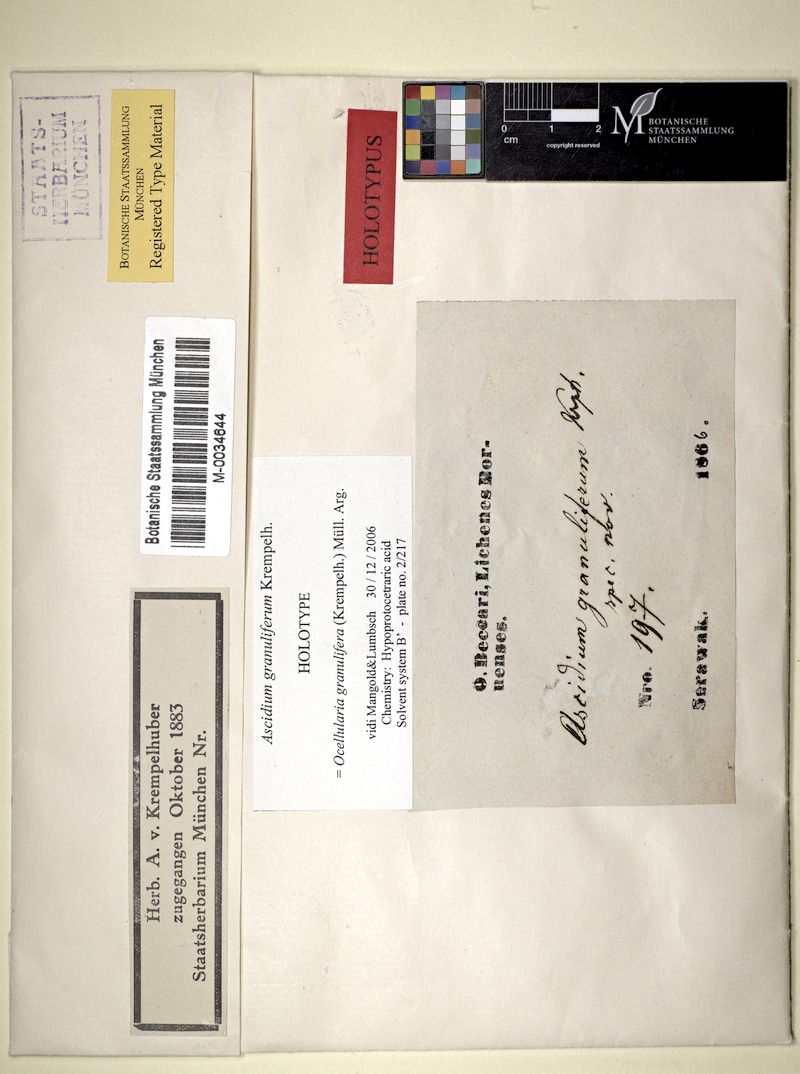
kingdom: Fungi
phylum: Ascomycota
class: Lecanoromycetes
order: Ostropales
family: Graphidaceae
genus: Ocellularia
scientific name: Ocellularia granulifera
